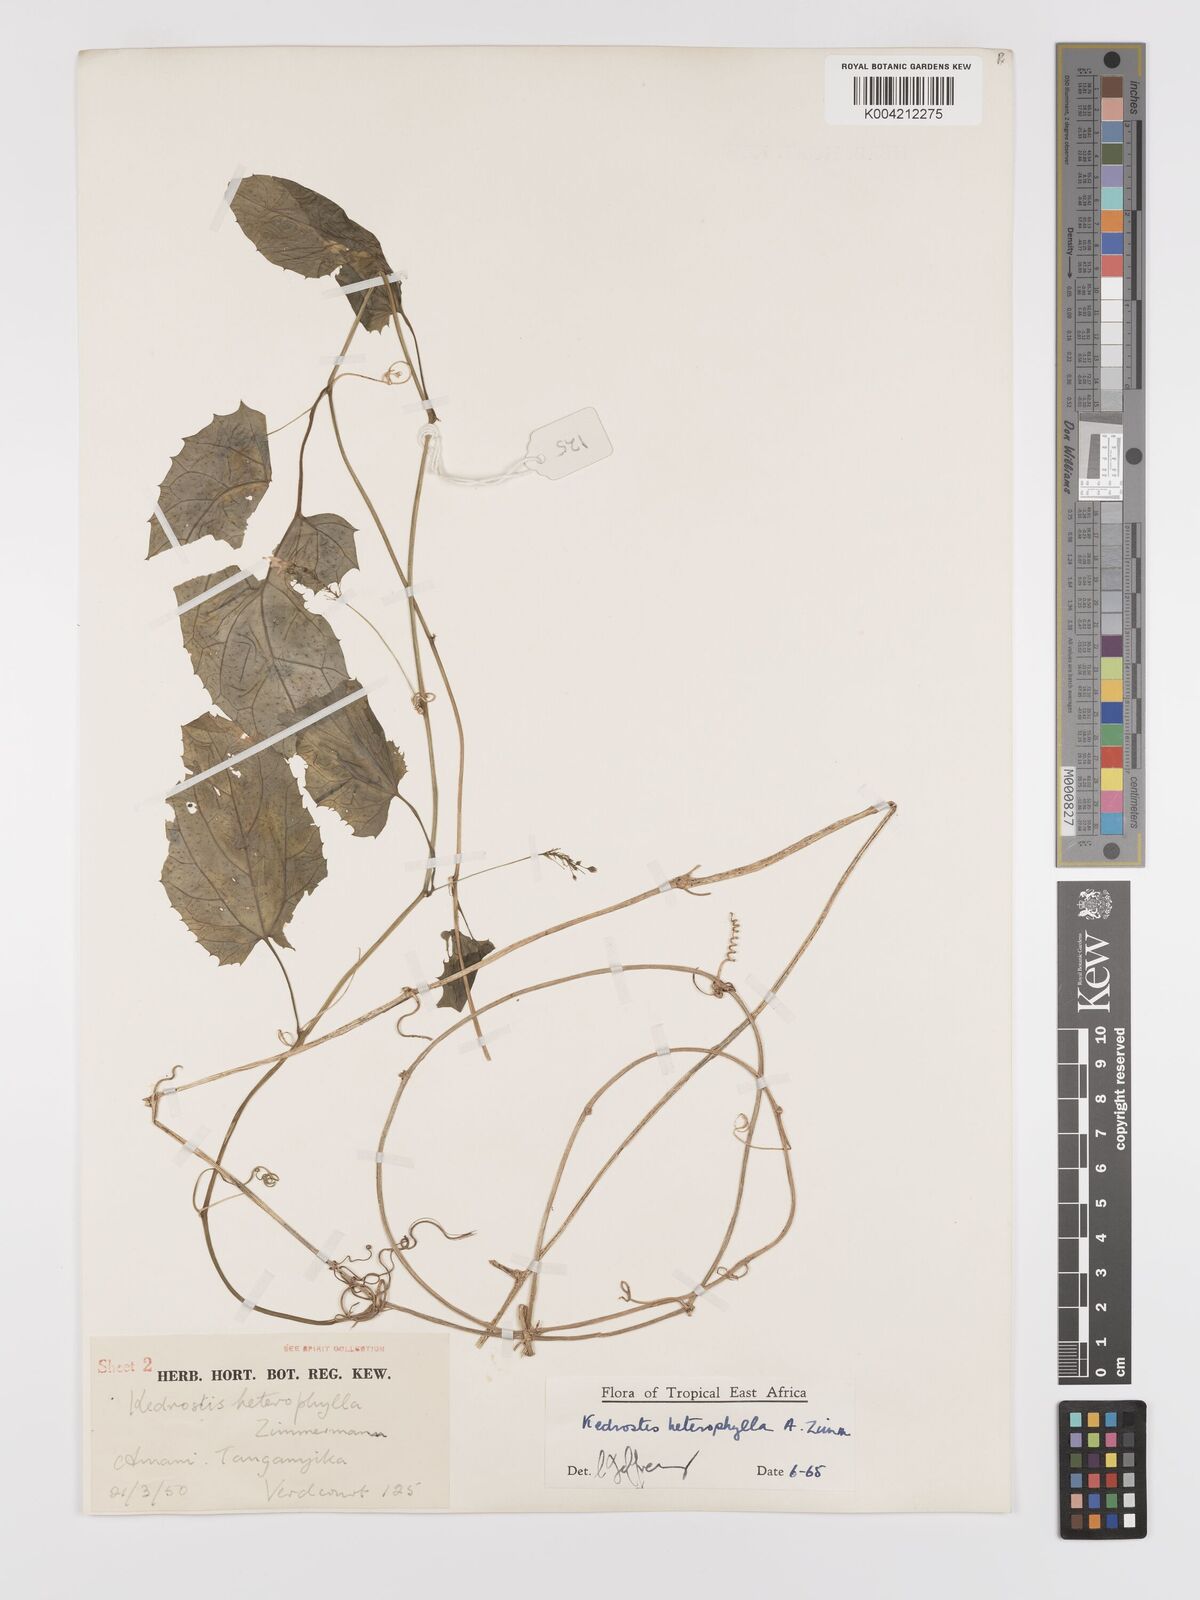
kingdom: Plantae
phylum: Tracheophyta
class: Magnoliopsida
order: Cucurbitales
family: Cucurbitaceae
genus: Kedrostis
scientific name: Kedrostis heterophylla
